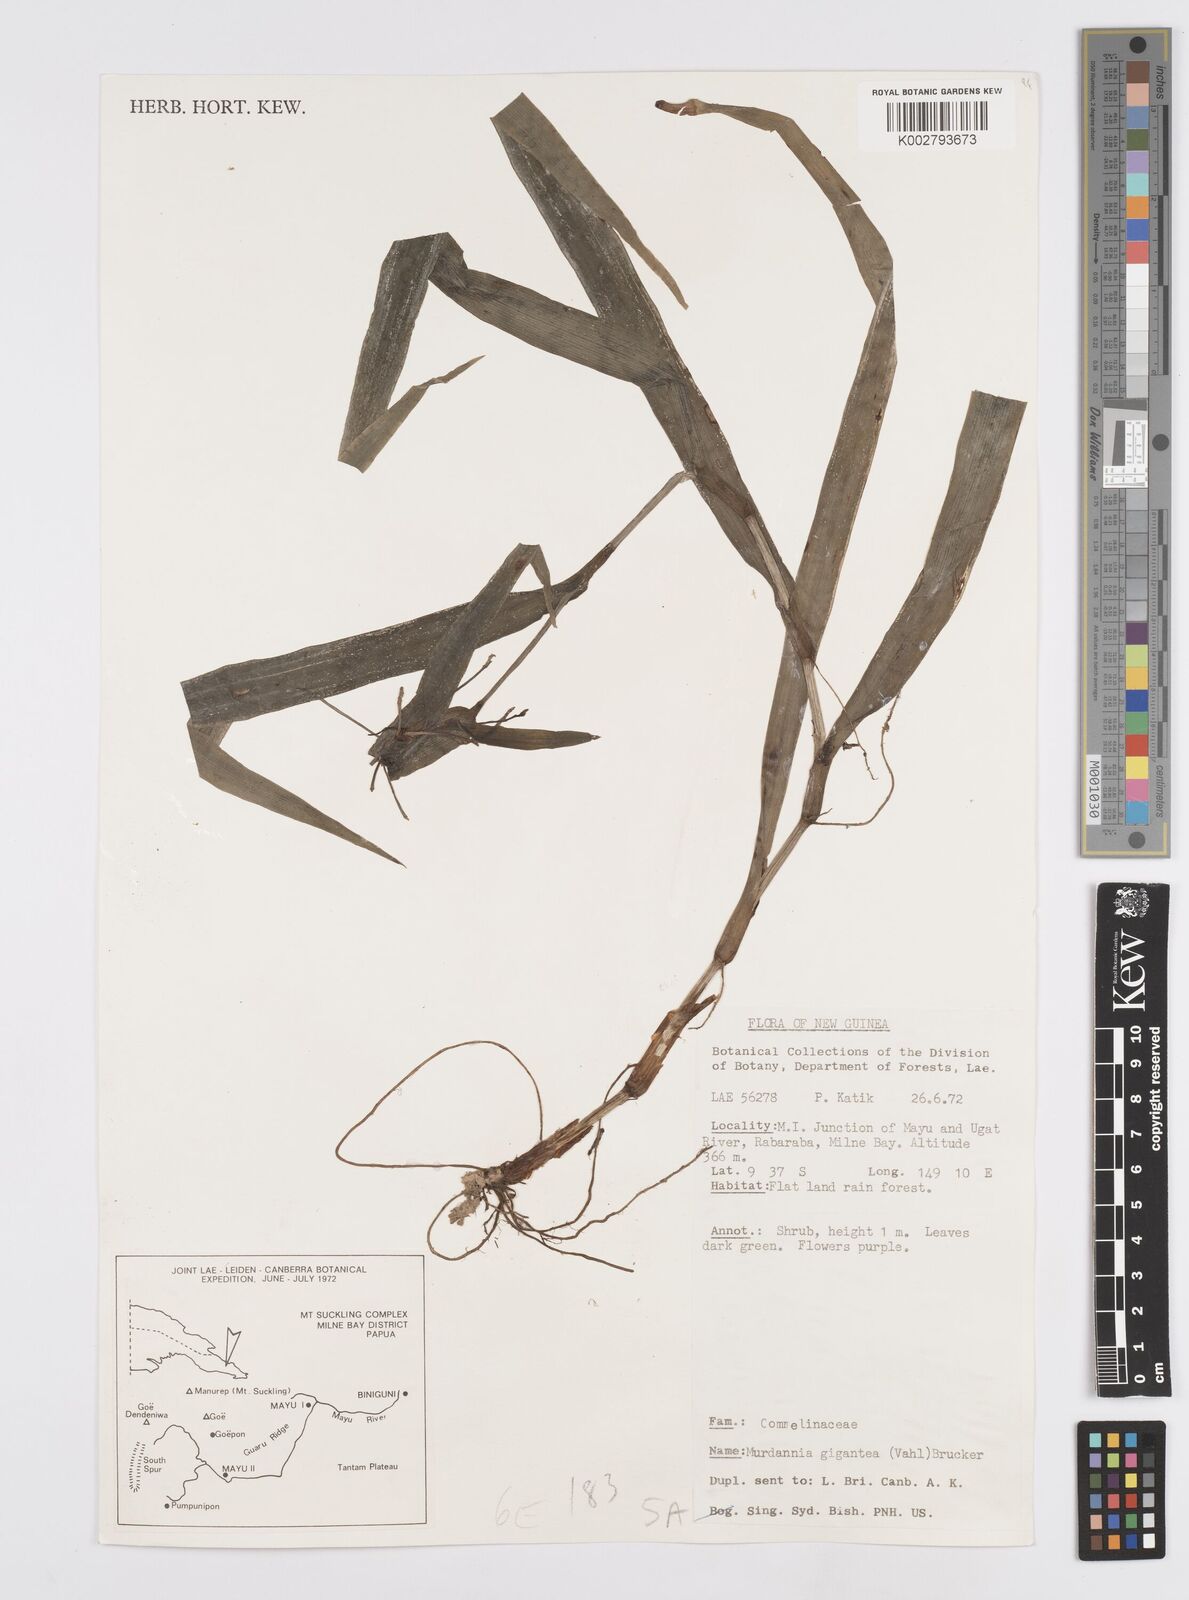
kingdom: Plantae
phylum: Tracheophyta
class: Liliopsida
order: Commelinales
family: Commelinaceae
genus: Murdannia
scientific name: Murdannia gigantea
